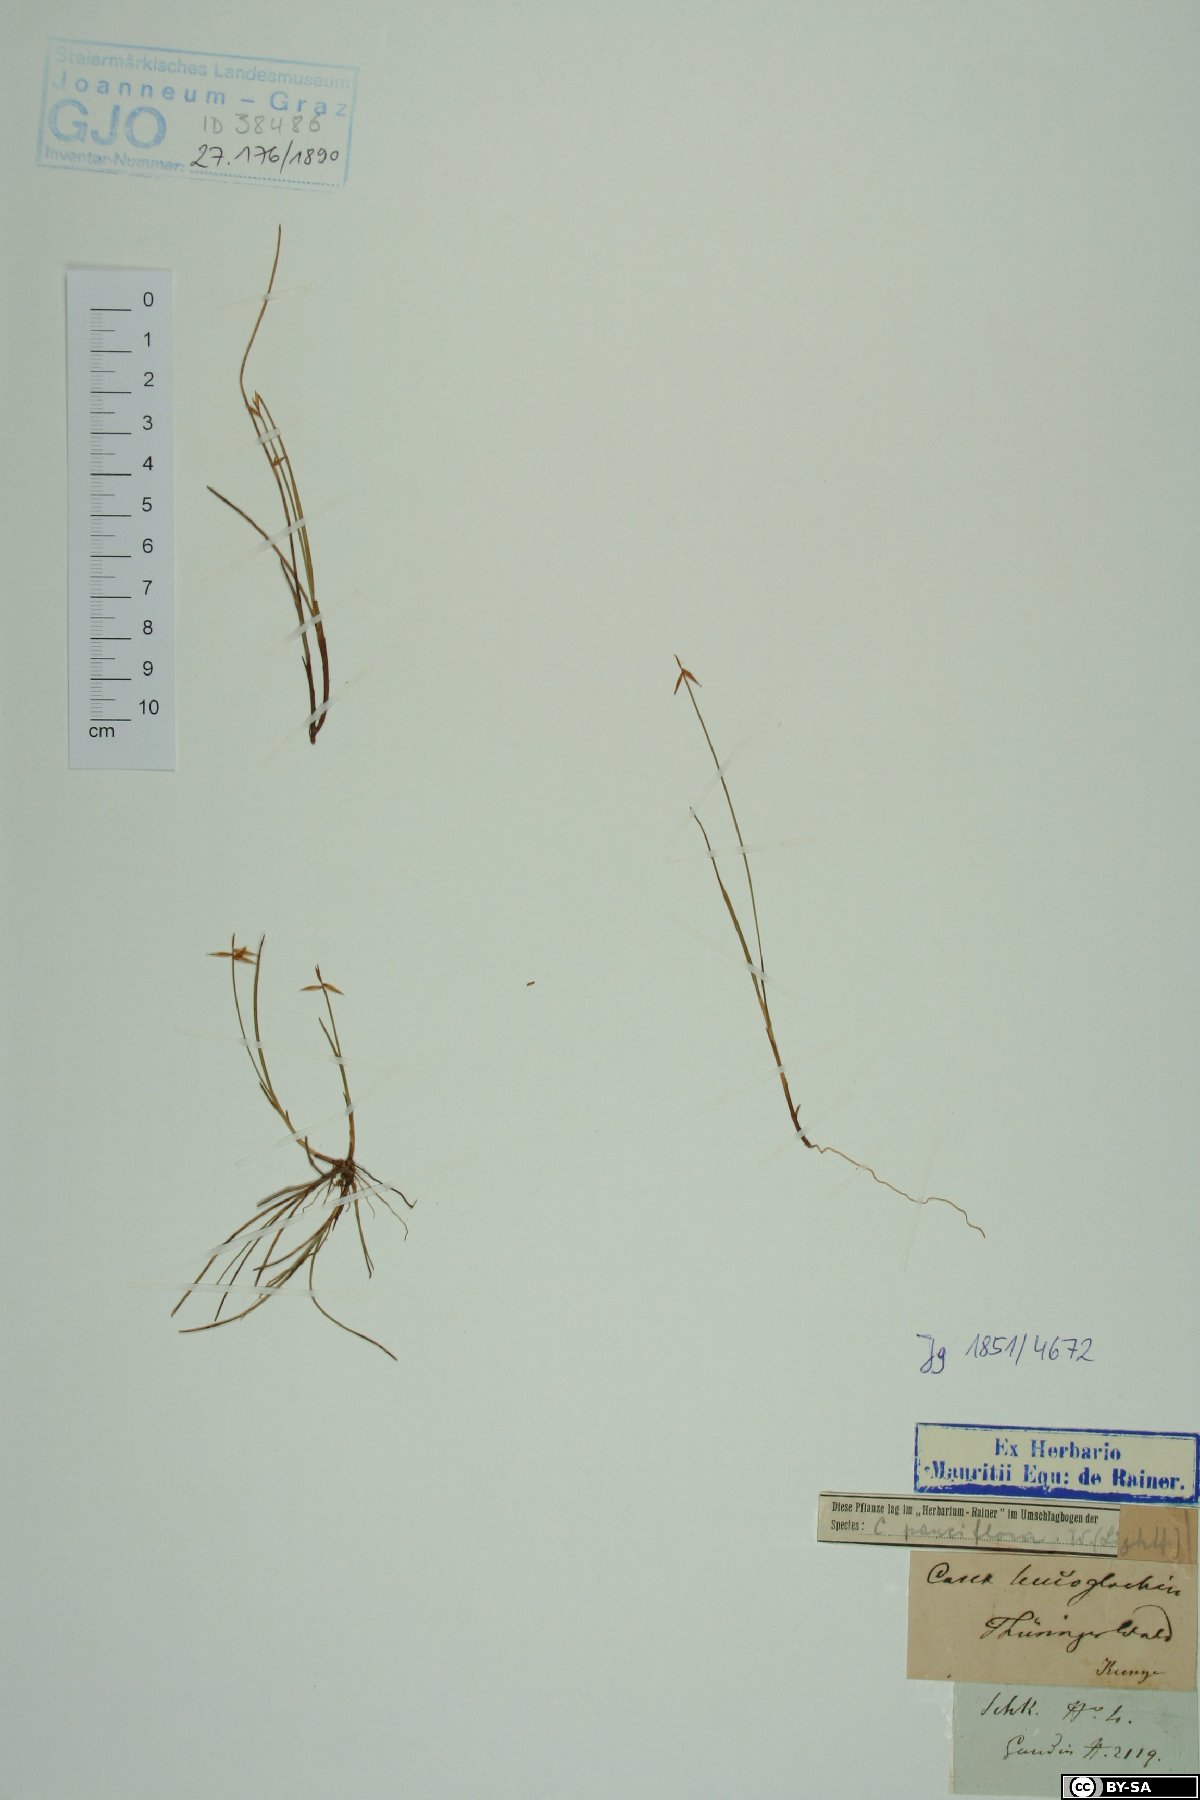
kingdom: Plantae
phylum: Tracheophyta
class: Liliopsida
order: Poales
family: Cyperaceae
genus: Carex
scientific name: Carex obtusata
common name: Blunt sedge
